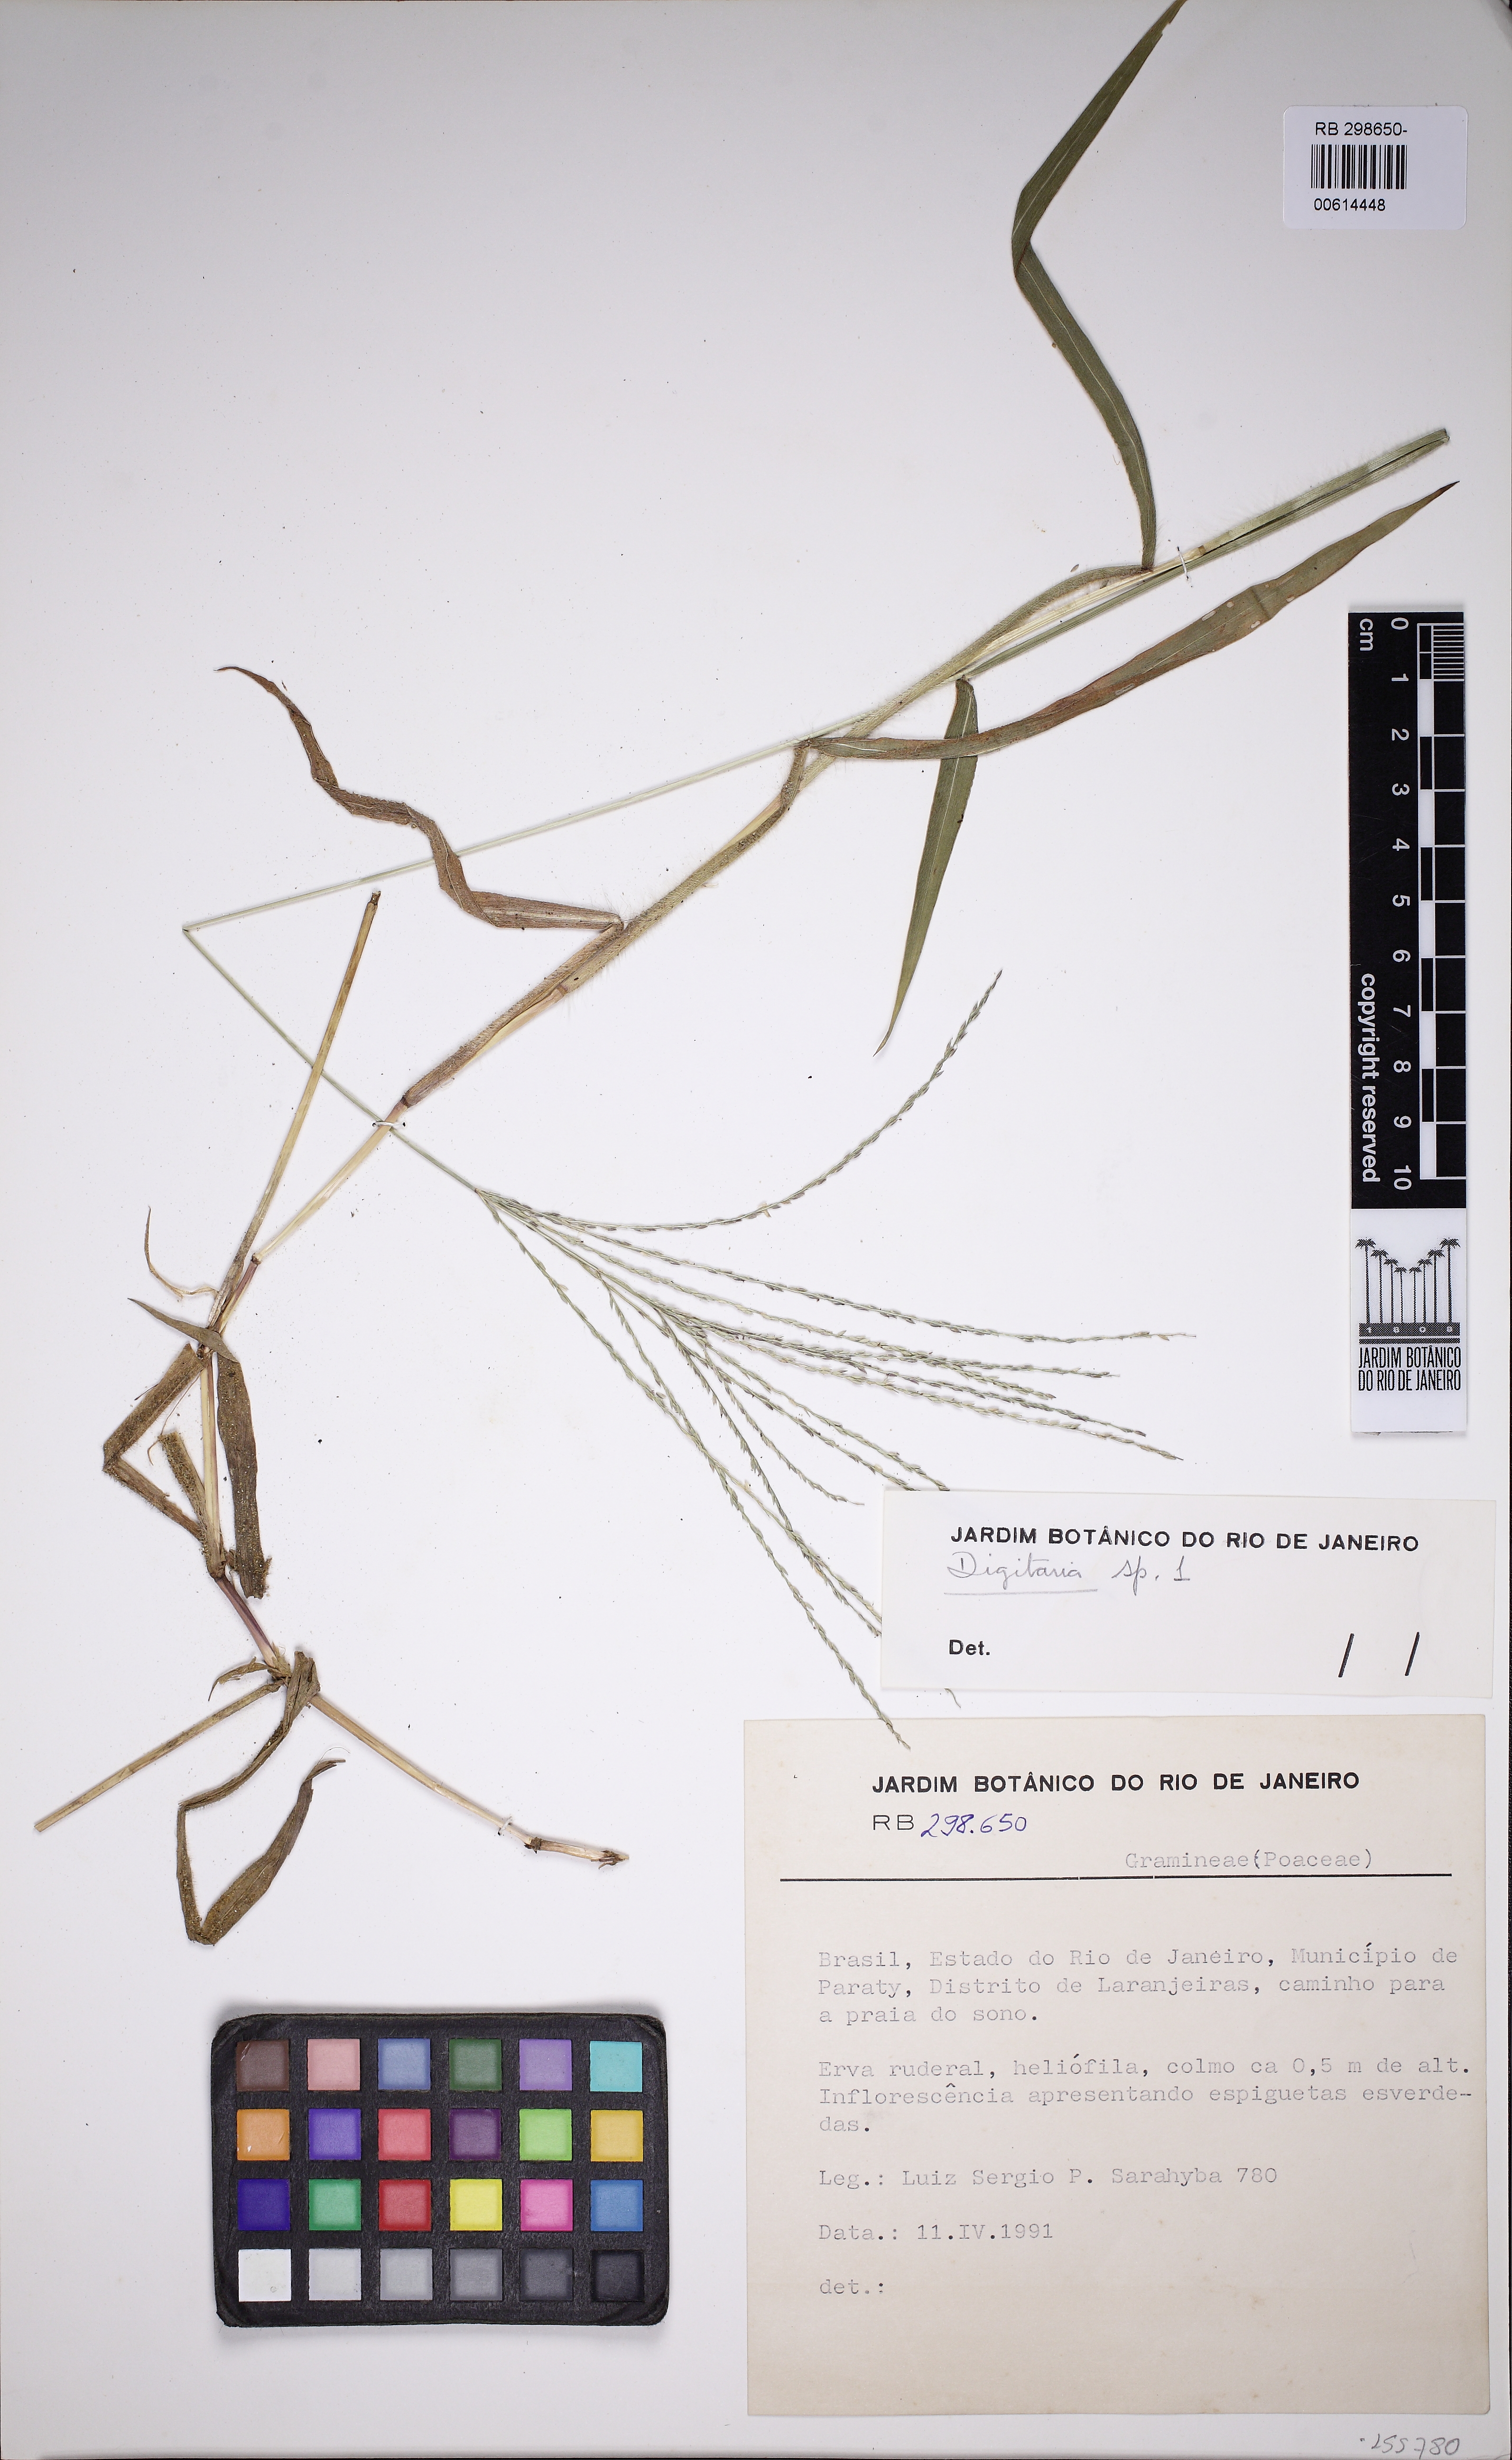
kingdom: Plantae
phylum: Tracheophyta
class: Liliopsida
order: Poales
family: Poaceae
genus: Digitaria
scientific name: Digitaria
